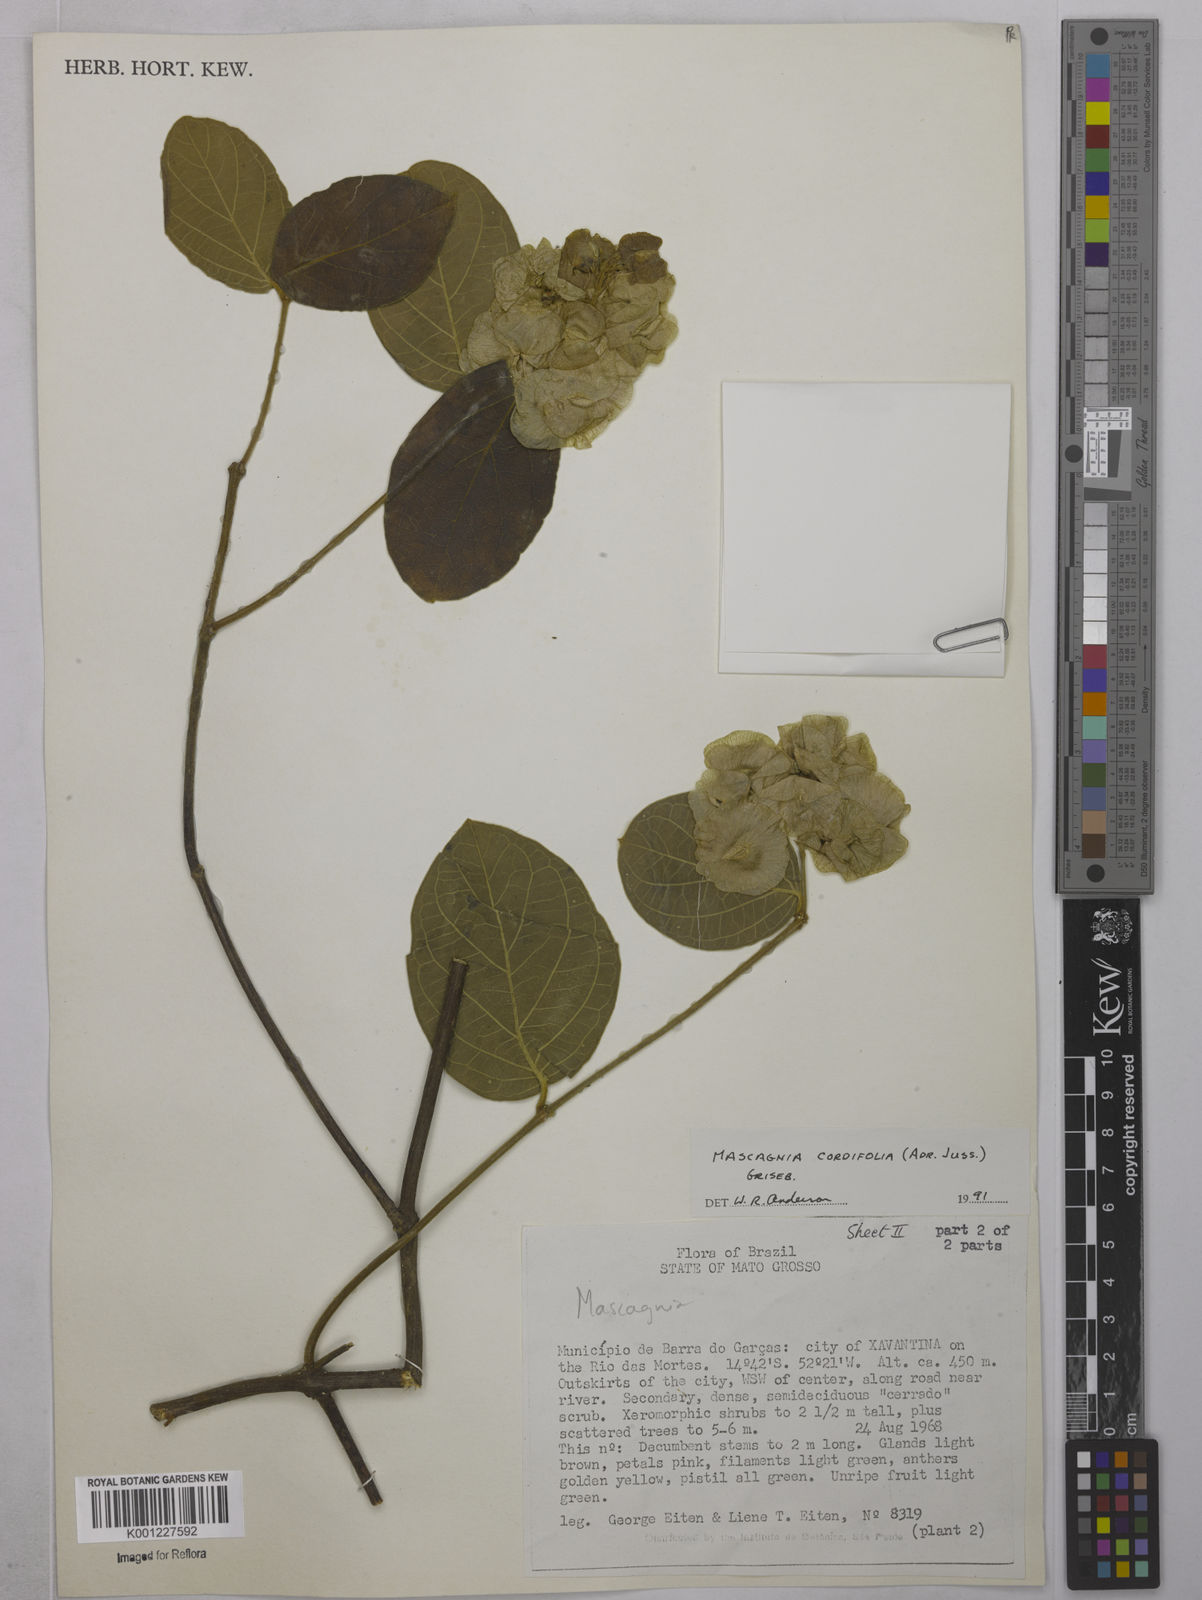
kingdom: Plantae
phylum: Tracheophyta
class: Magnoliopsida
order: Malpighiales
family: Malpighiaceae
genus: Mascagnia
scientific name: Mascagnia cordifolia
